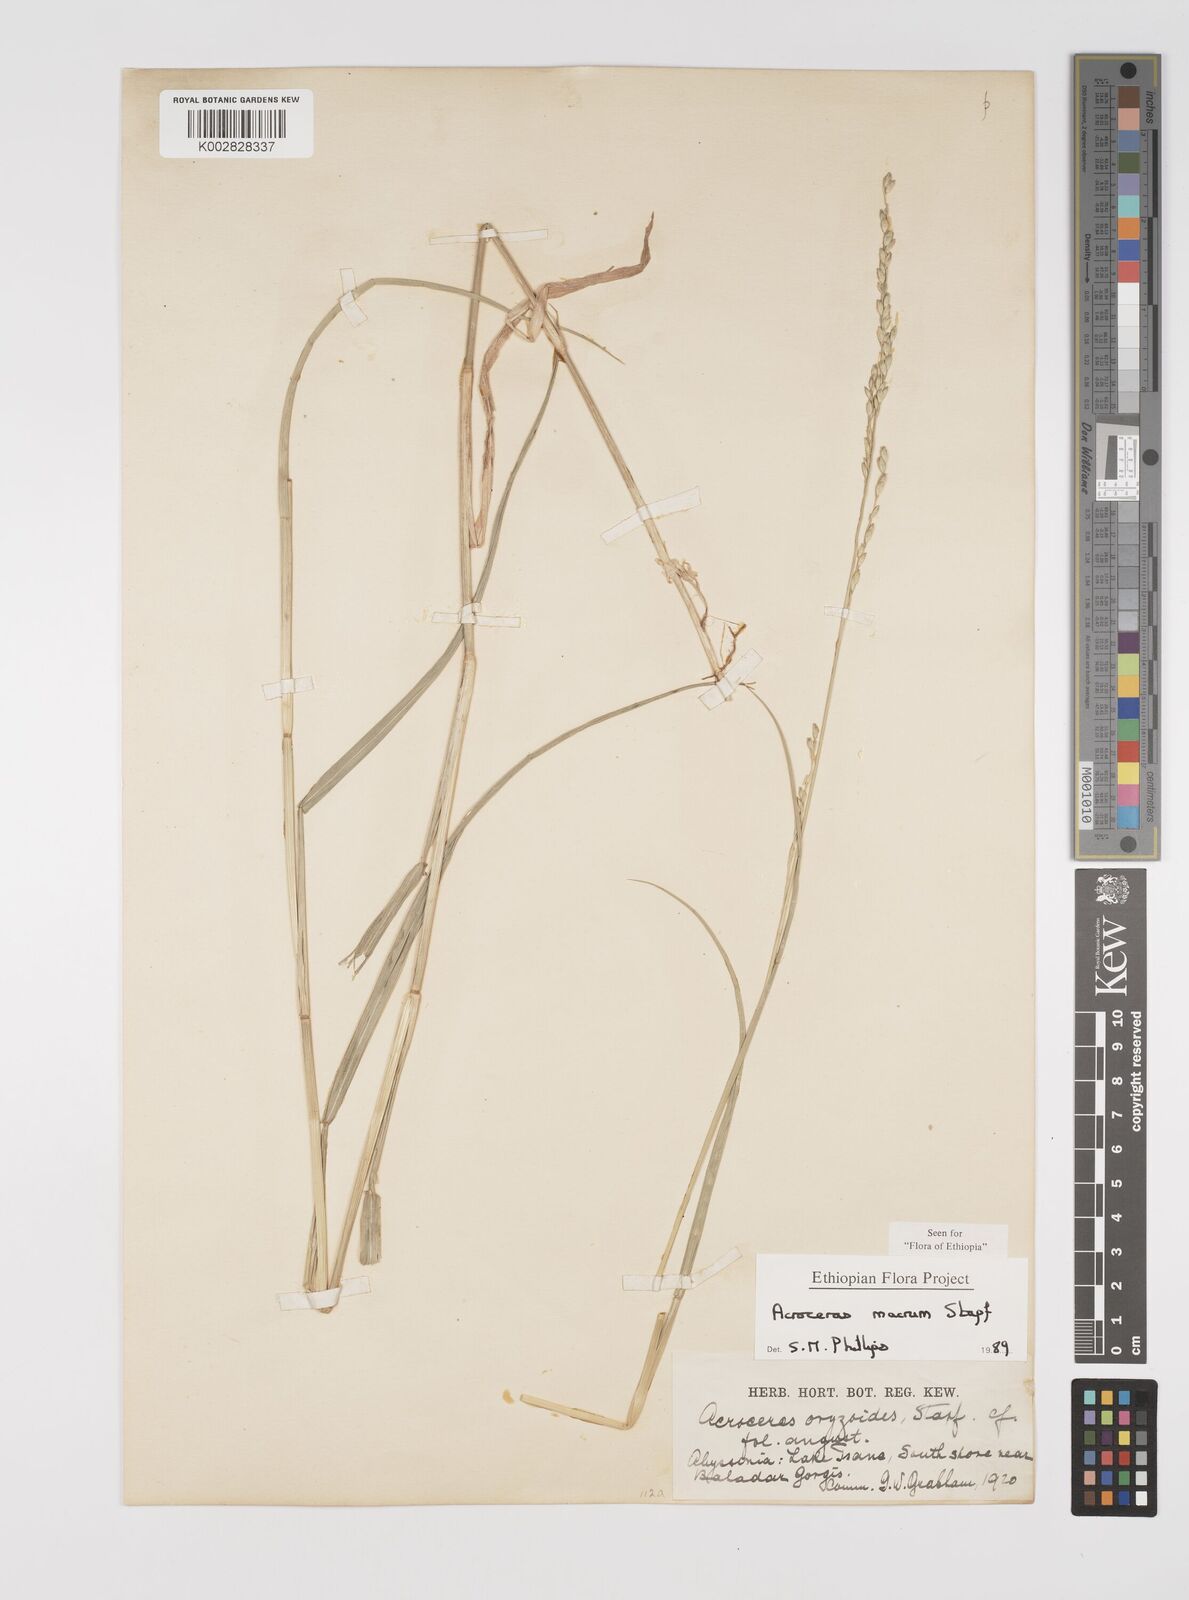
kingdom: Plantae
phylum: Tracheophyta
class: Liliopsida
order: Poales
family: Poaceae
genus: Acroceras
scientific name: Acroceras macrum
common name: Nyl grass
